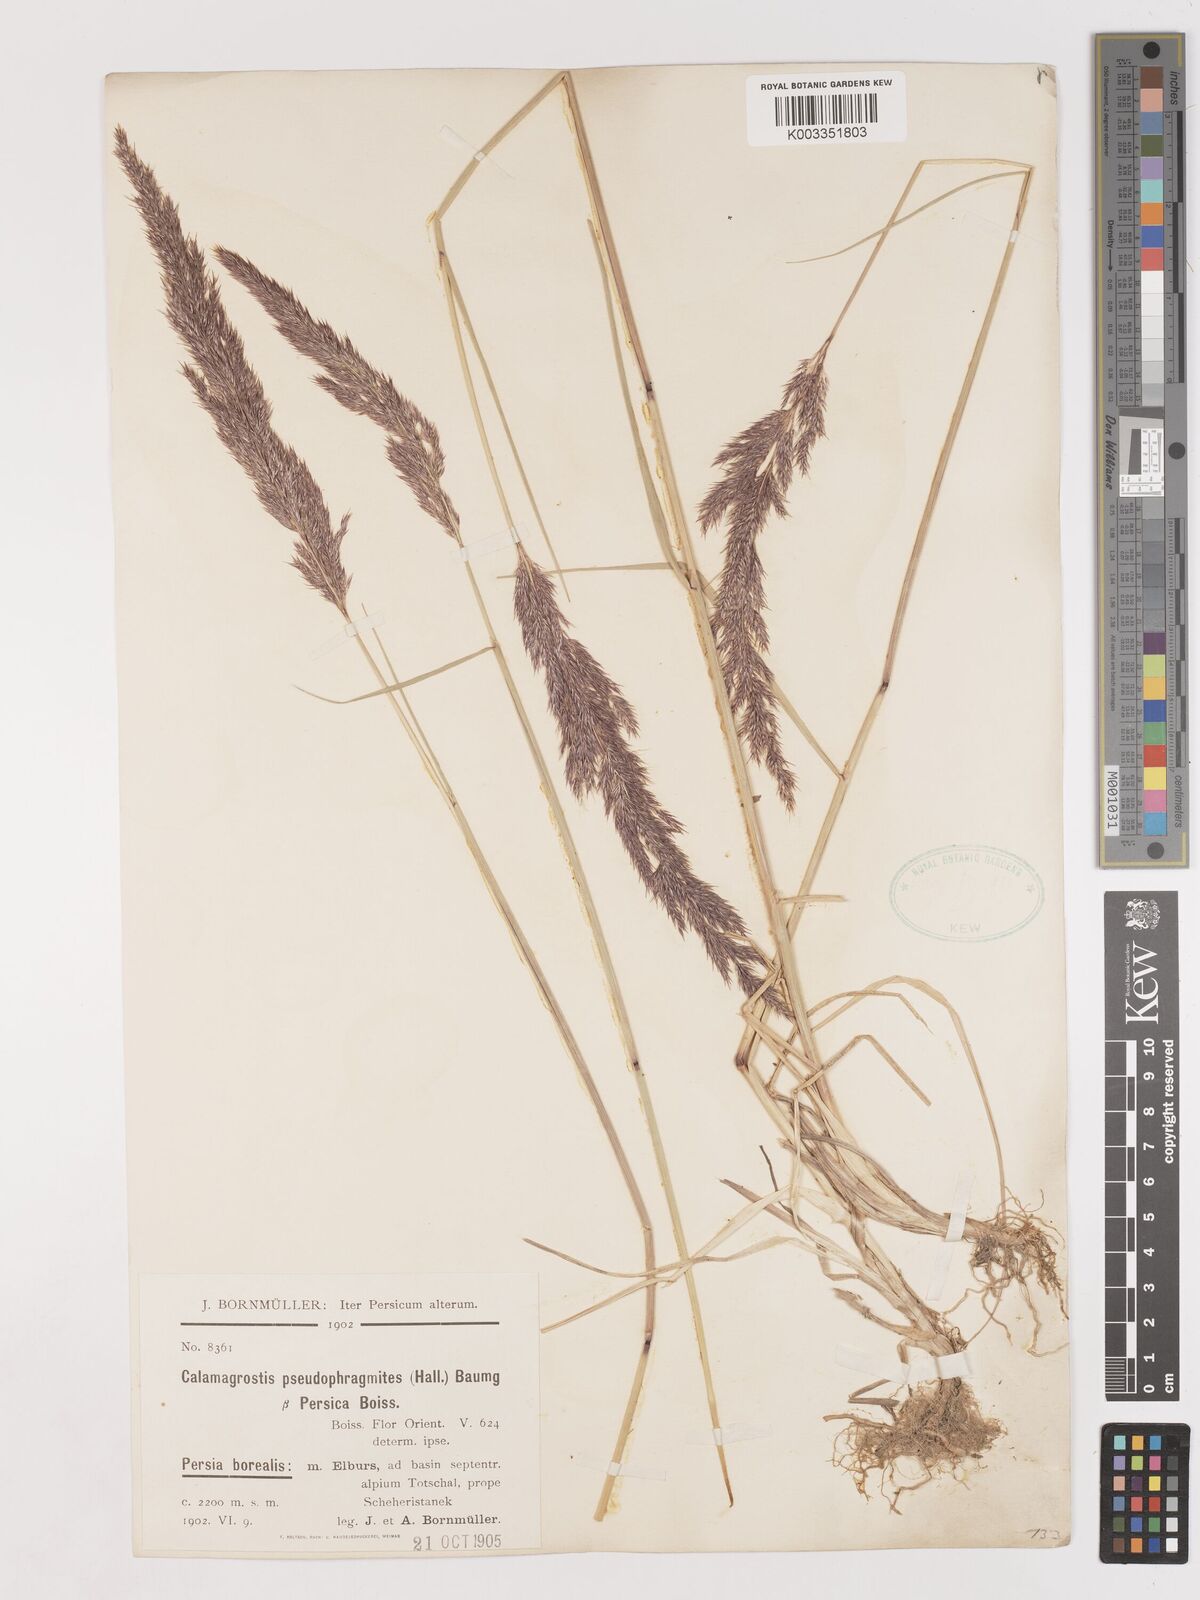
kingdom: Plantae
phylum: Tracheophyta
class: Liliopsida
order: Poales
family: Poaceae
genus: Calamagrostis
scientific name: Calamagrostis pseudophragmites
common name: Coastal small-reed
